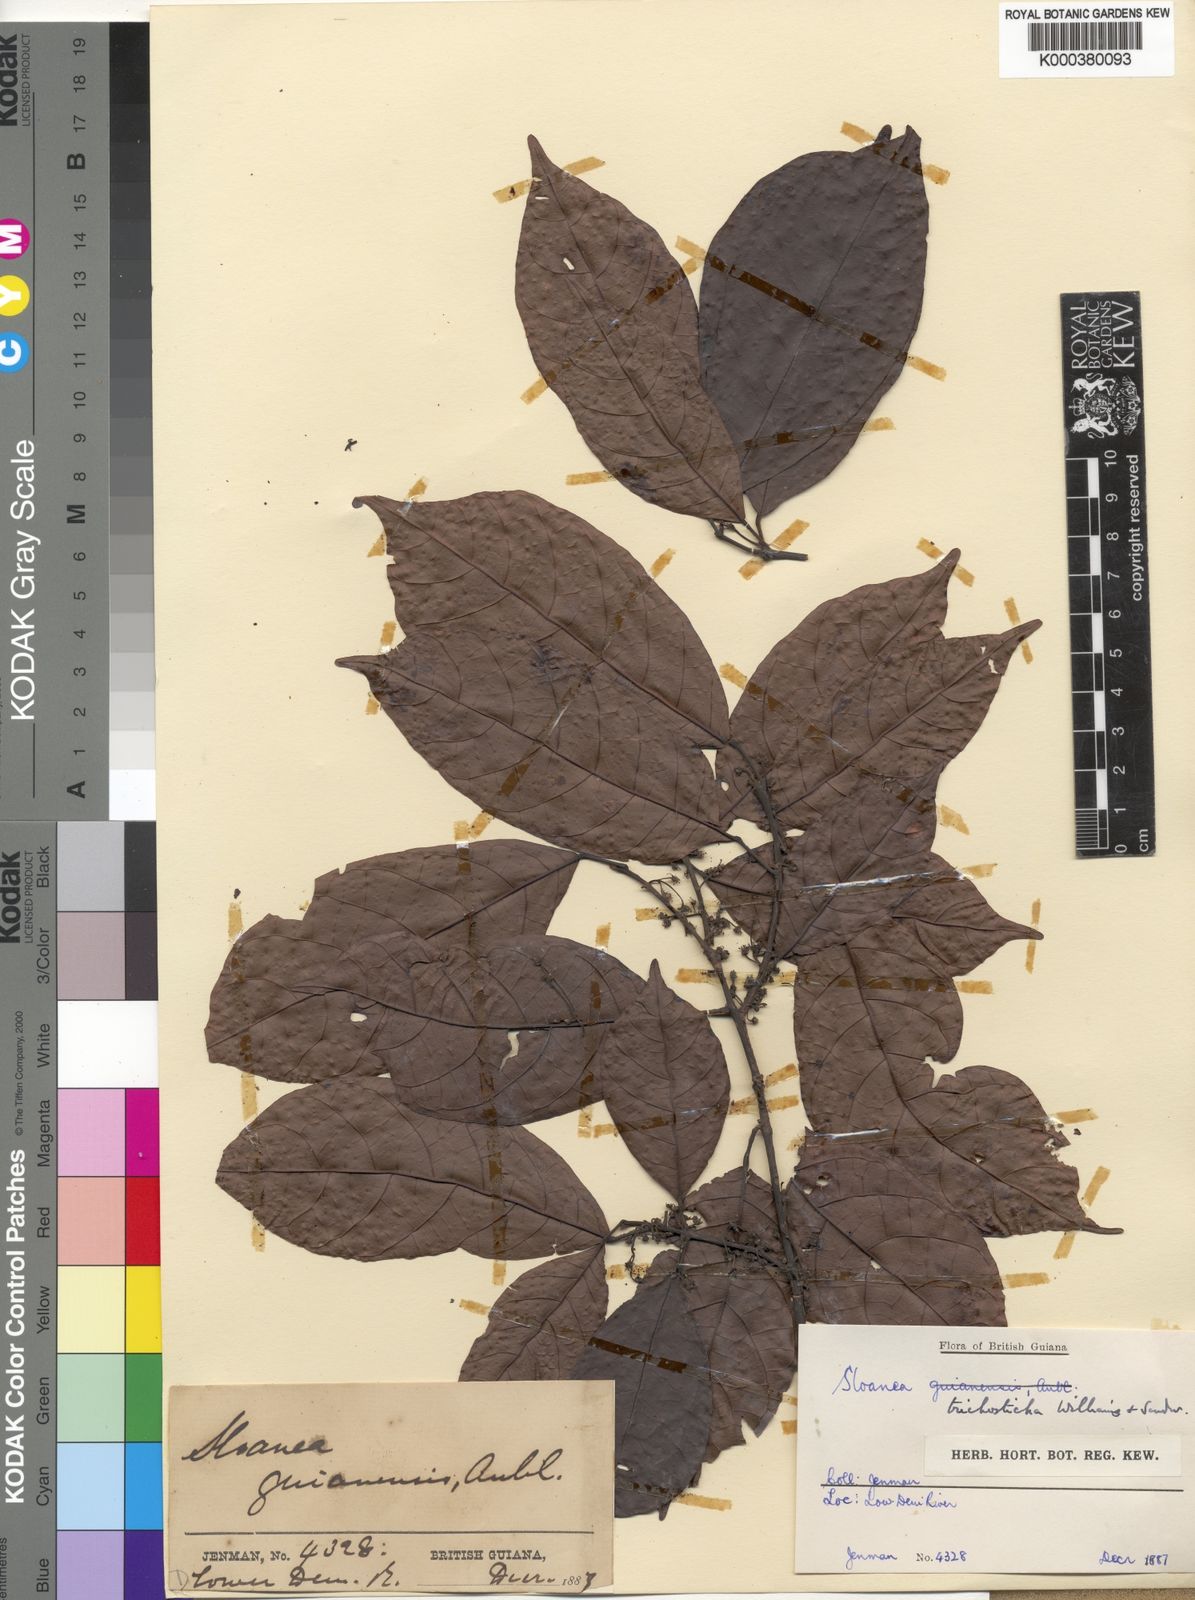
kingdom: Plantae
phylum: Tracheophyta
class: Magnoliopsida
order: Oxalidales
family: Elaeocarpaceae
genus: Sloanea
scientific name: Sloanea trichosticha
